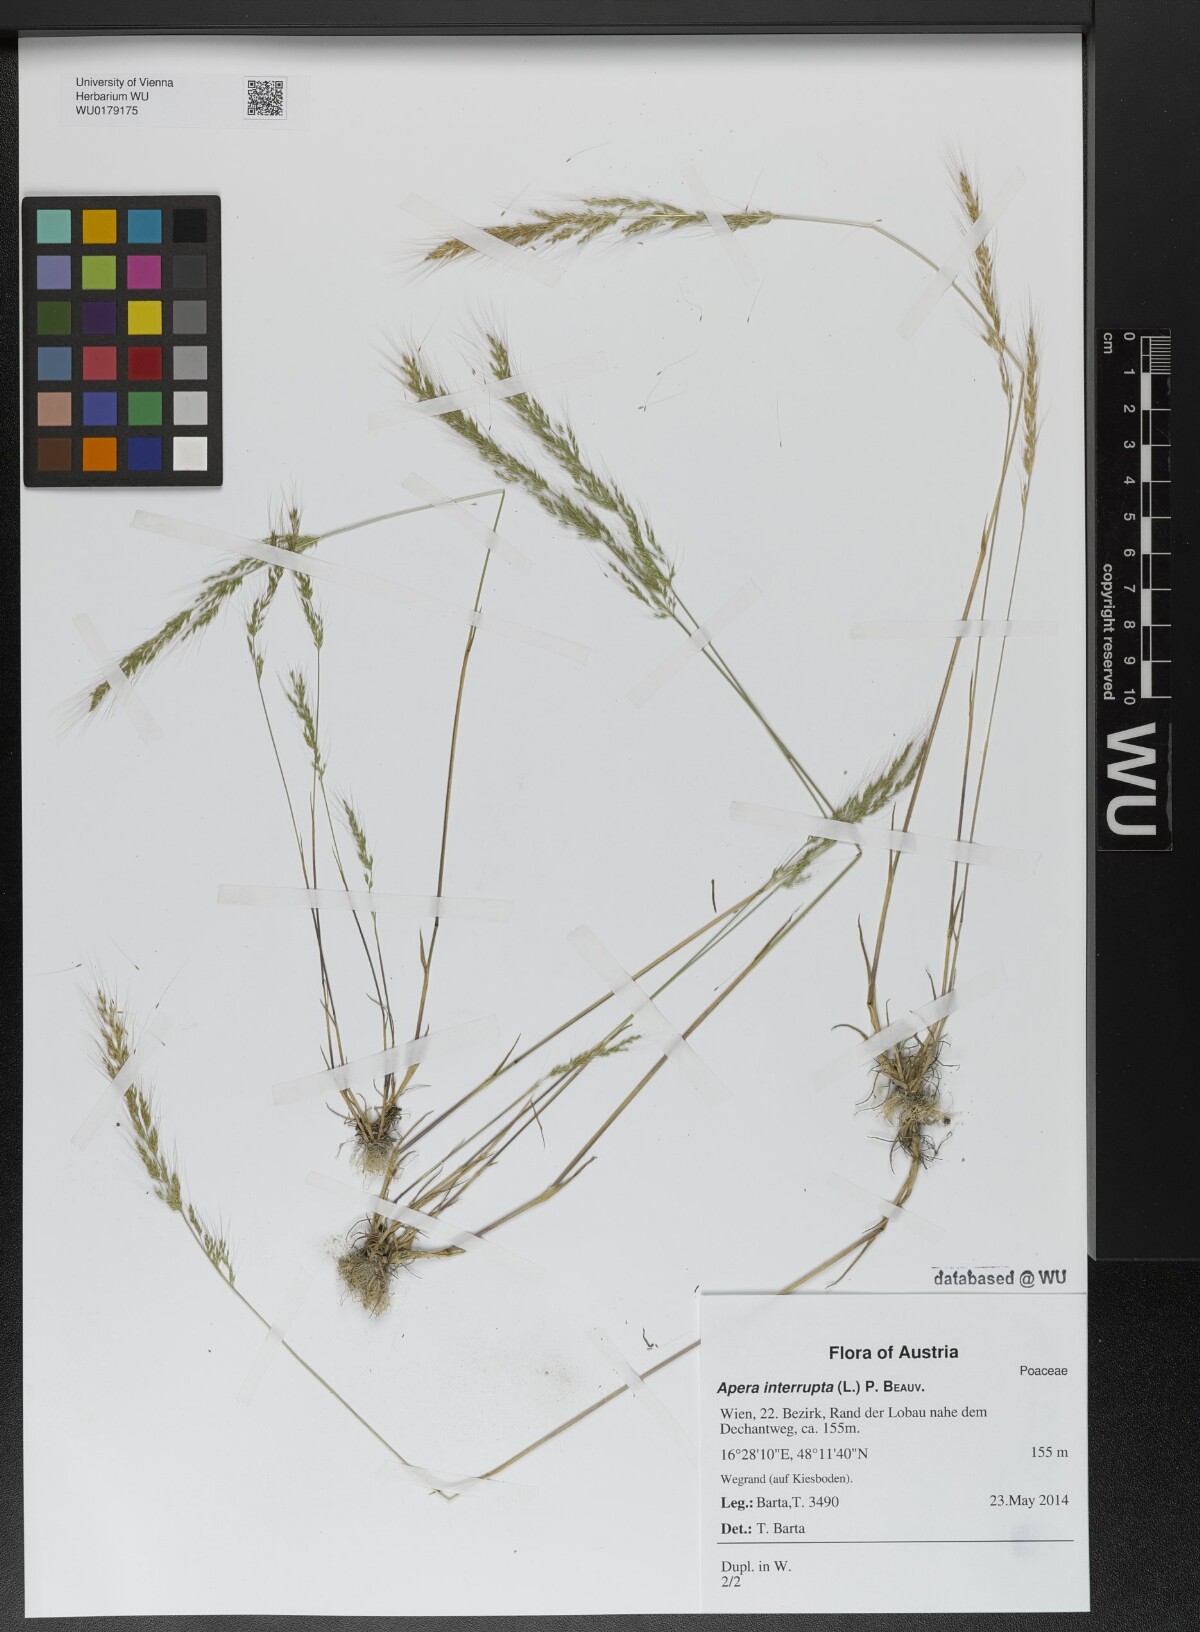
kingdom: Plantae
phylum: Tracheophyta
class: Liliopsida
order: Poales
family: Poaceae
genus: Apera
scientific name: Apera interrupta
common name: Dense silky-bent
